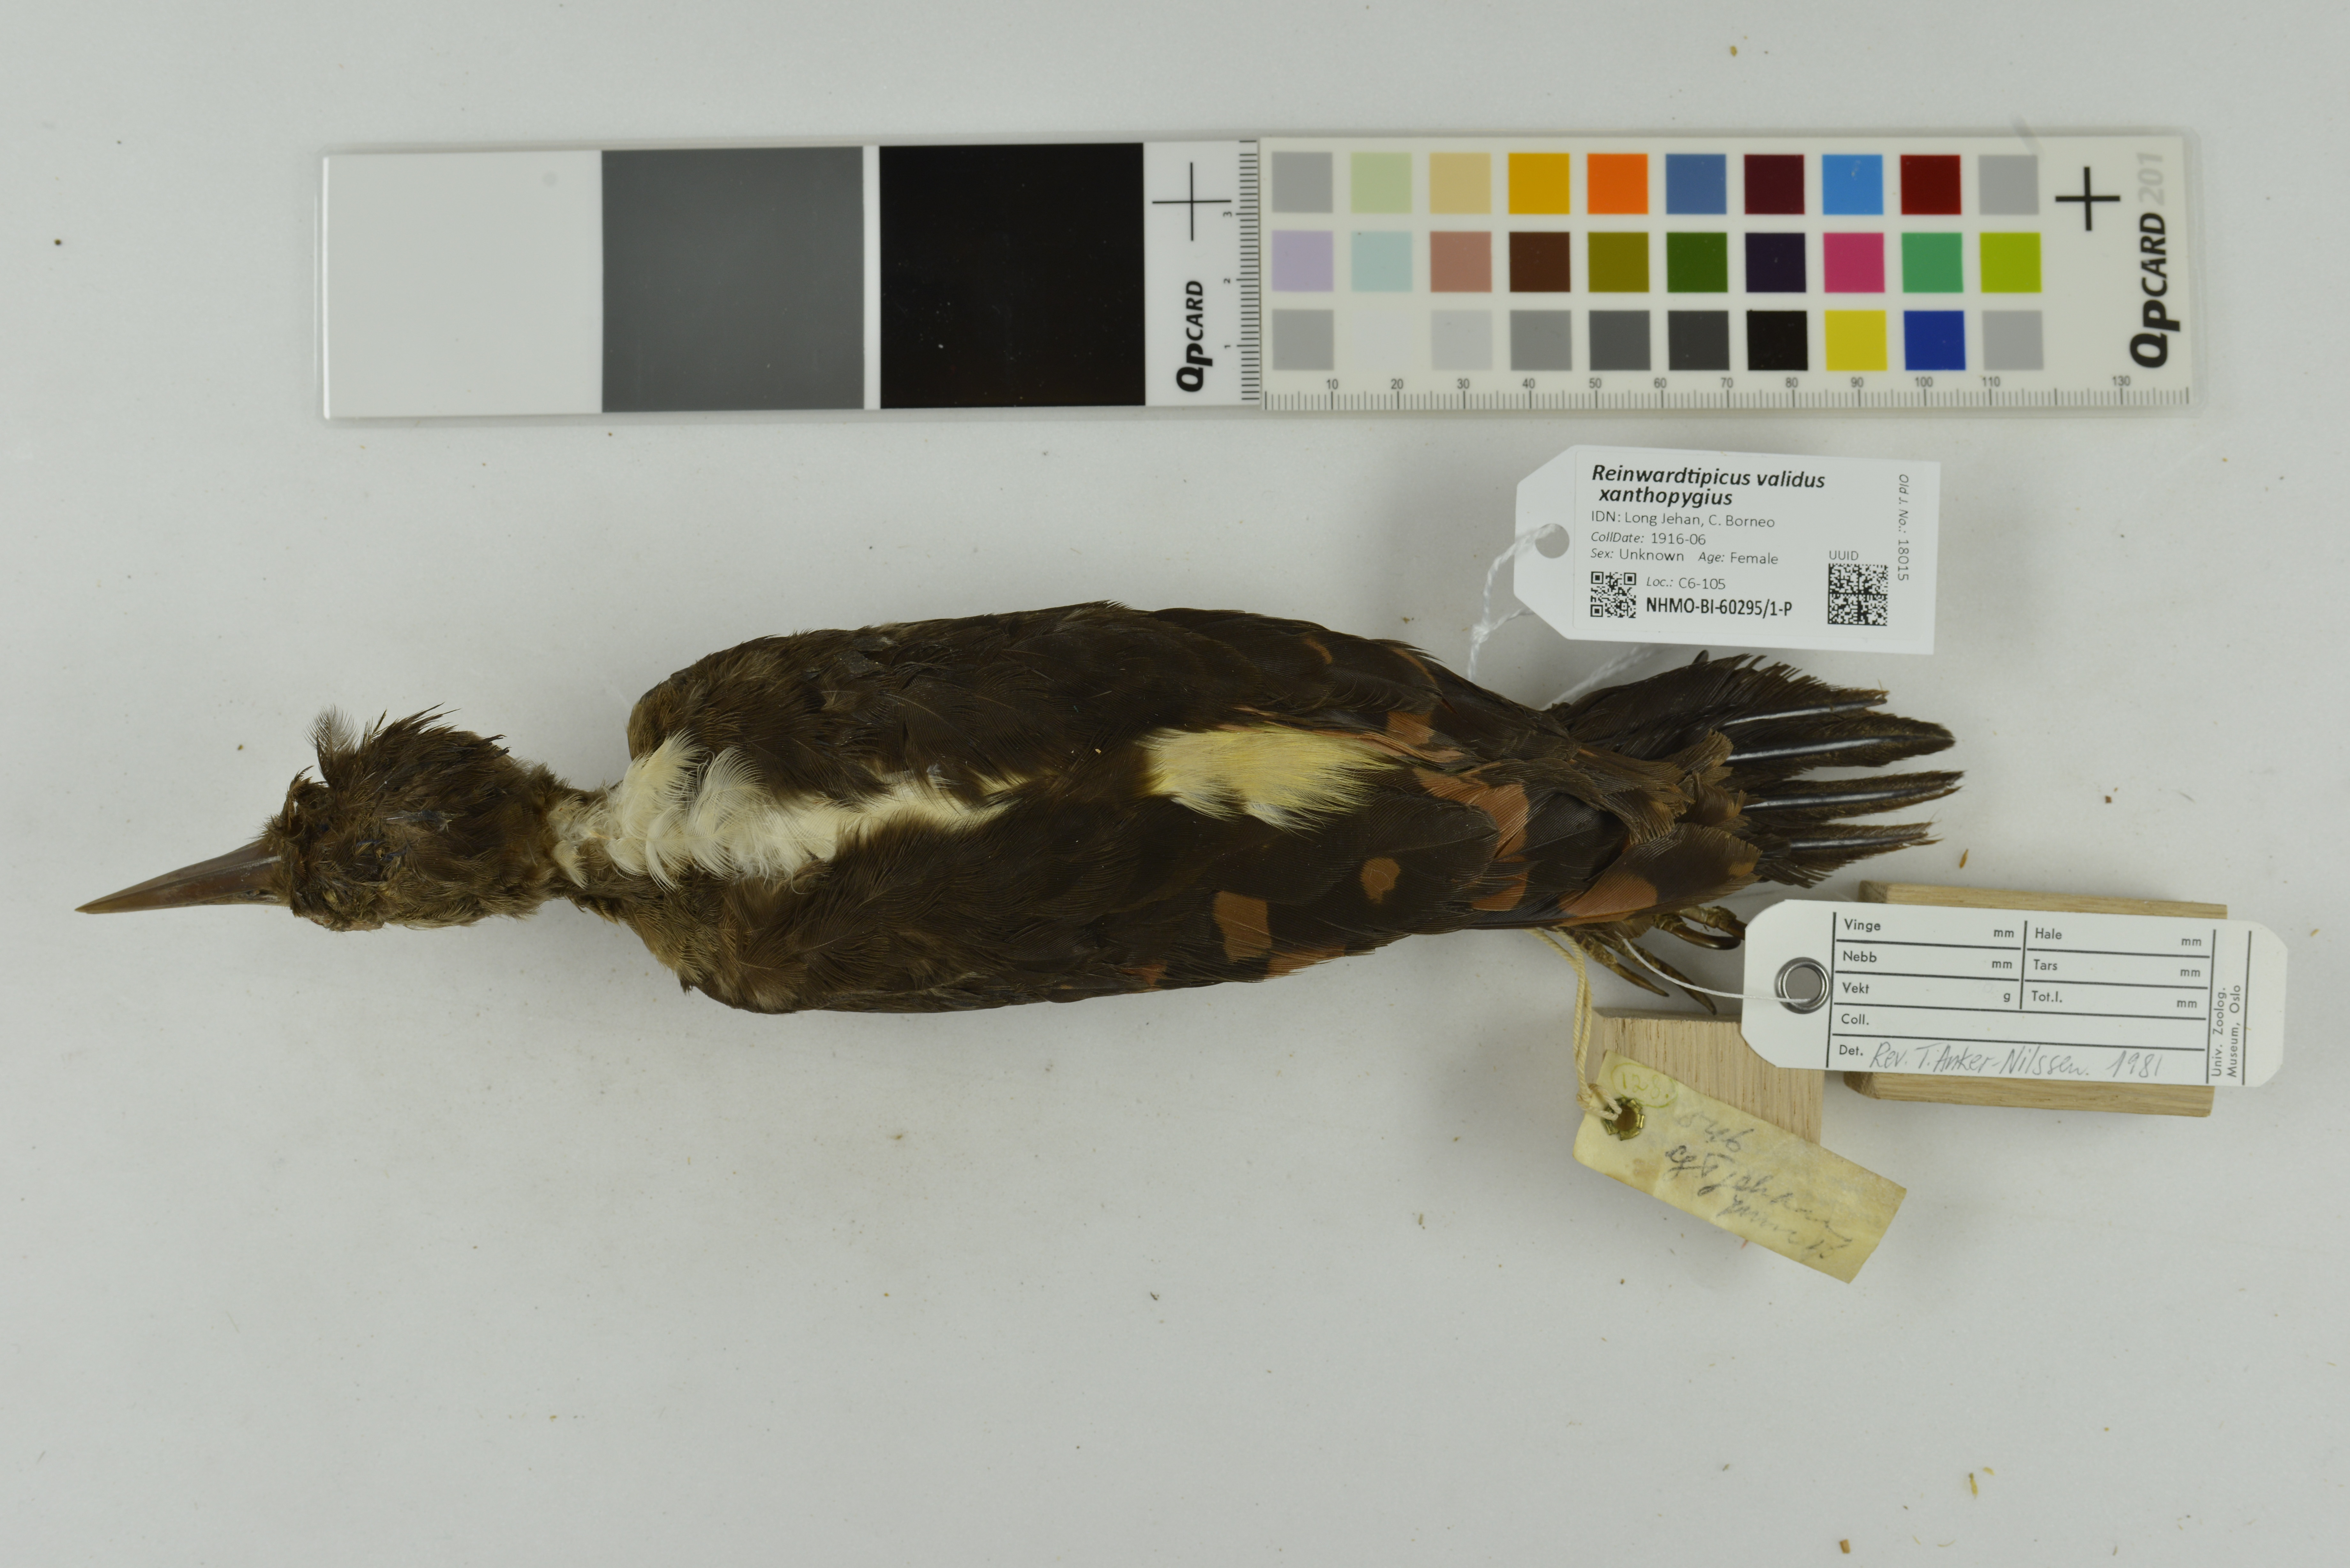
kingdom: Animalia
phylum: Chordata
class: Aves
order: Piciformes
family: Picidae
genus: Reinwardtipicus
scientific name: Reinwardtipicus validus
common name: Orange-backed woodpecker
